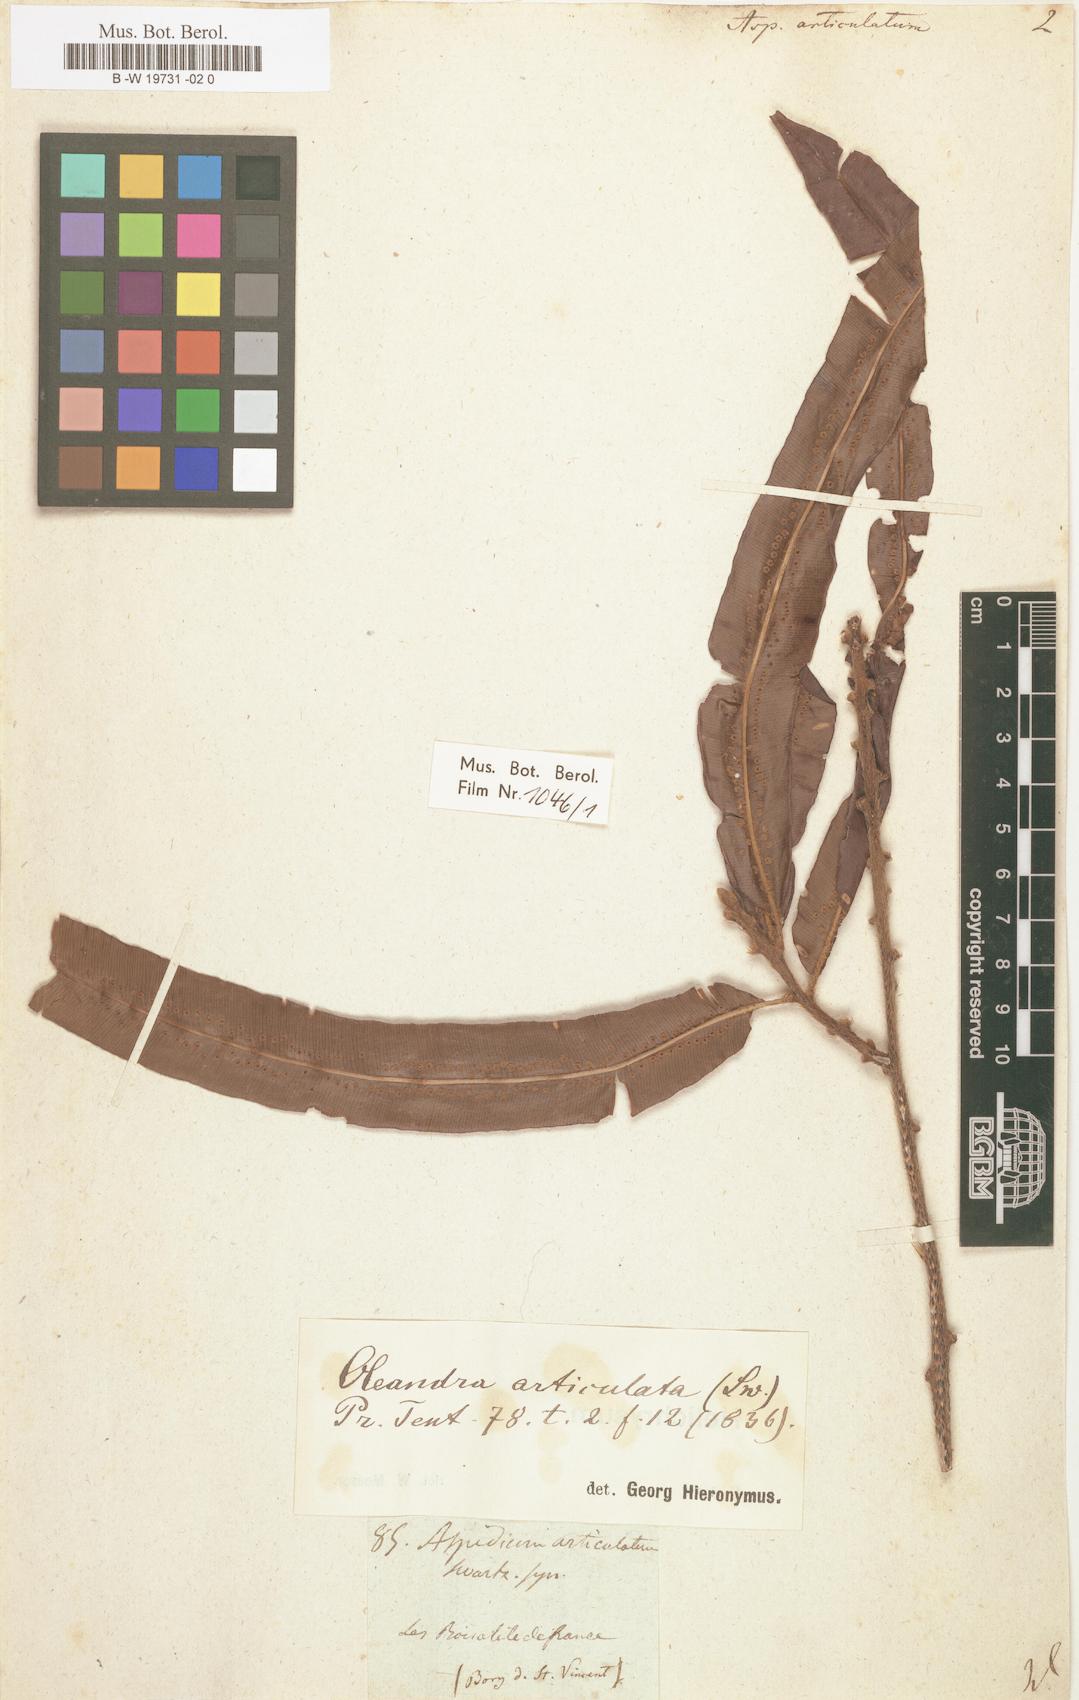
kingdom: Plantae
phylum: Tracheophyta
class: Polypodiopsida
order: Polypodiales
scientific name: Polypodiales
